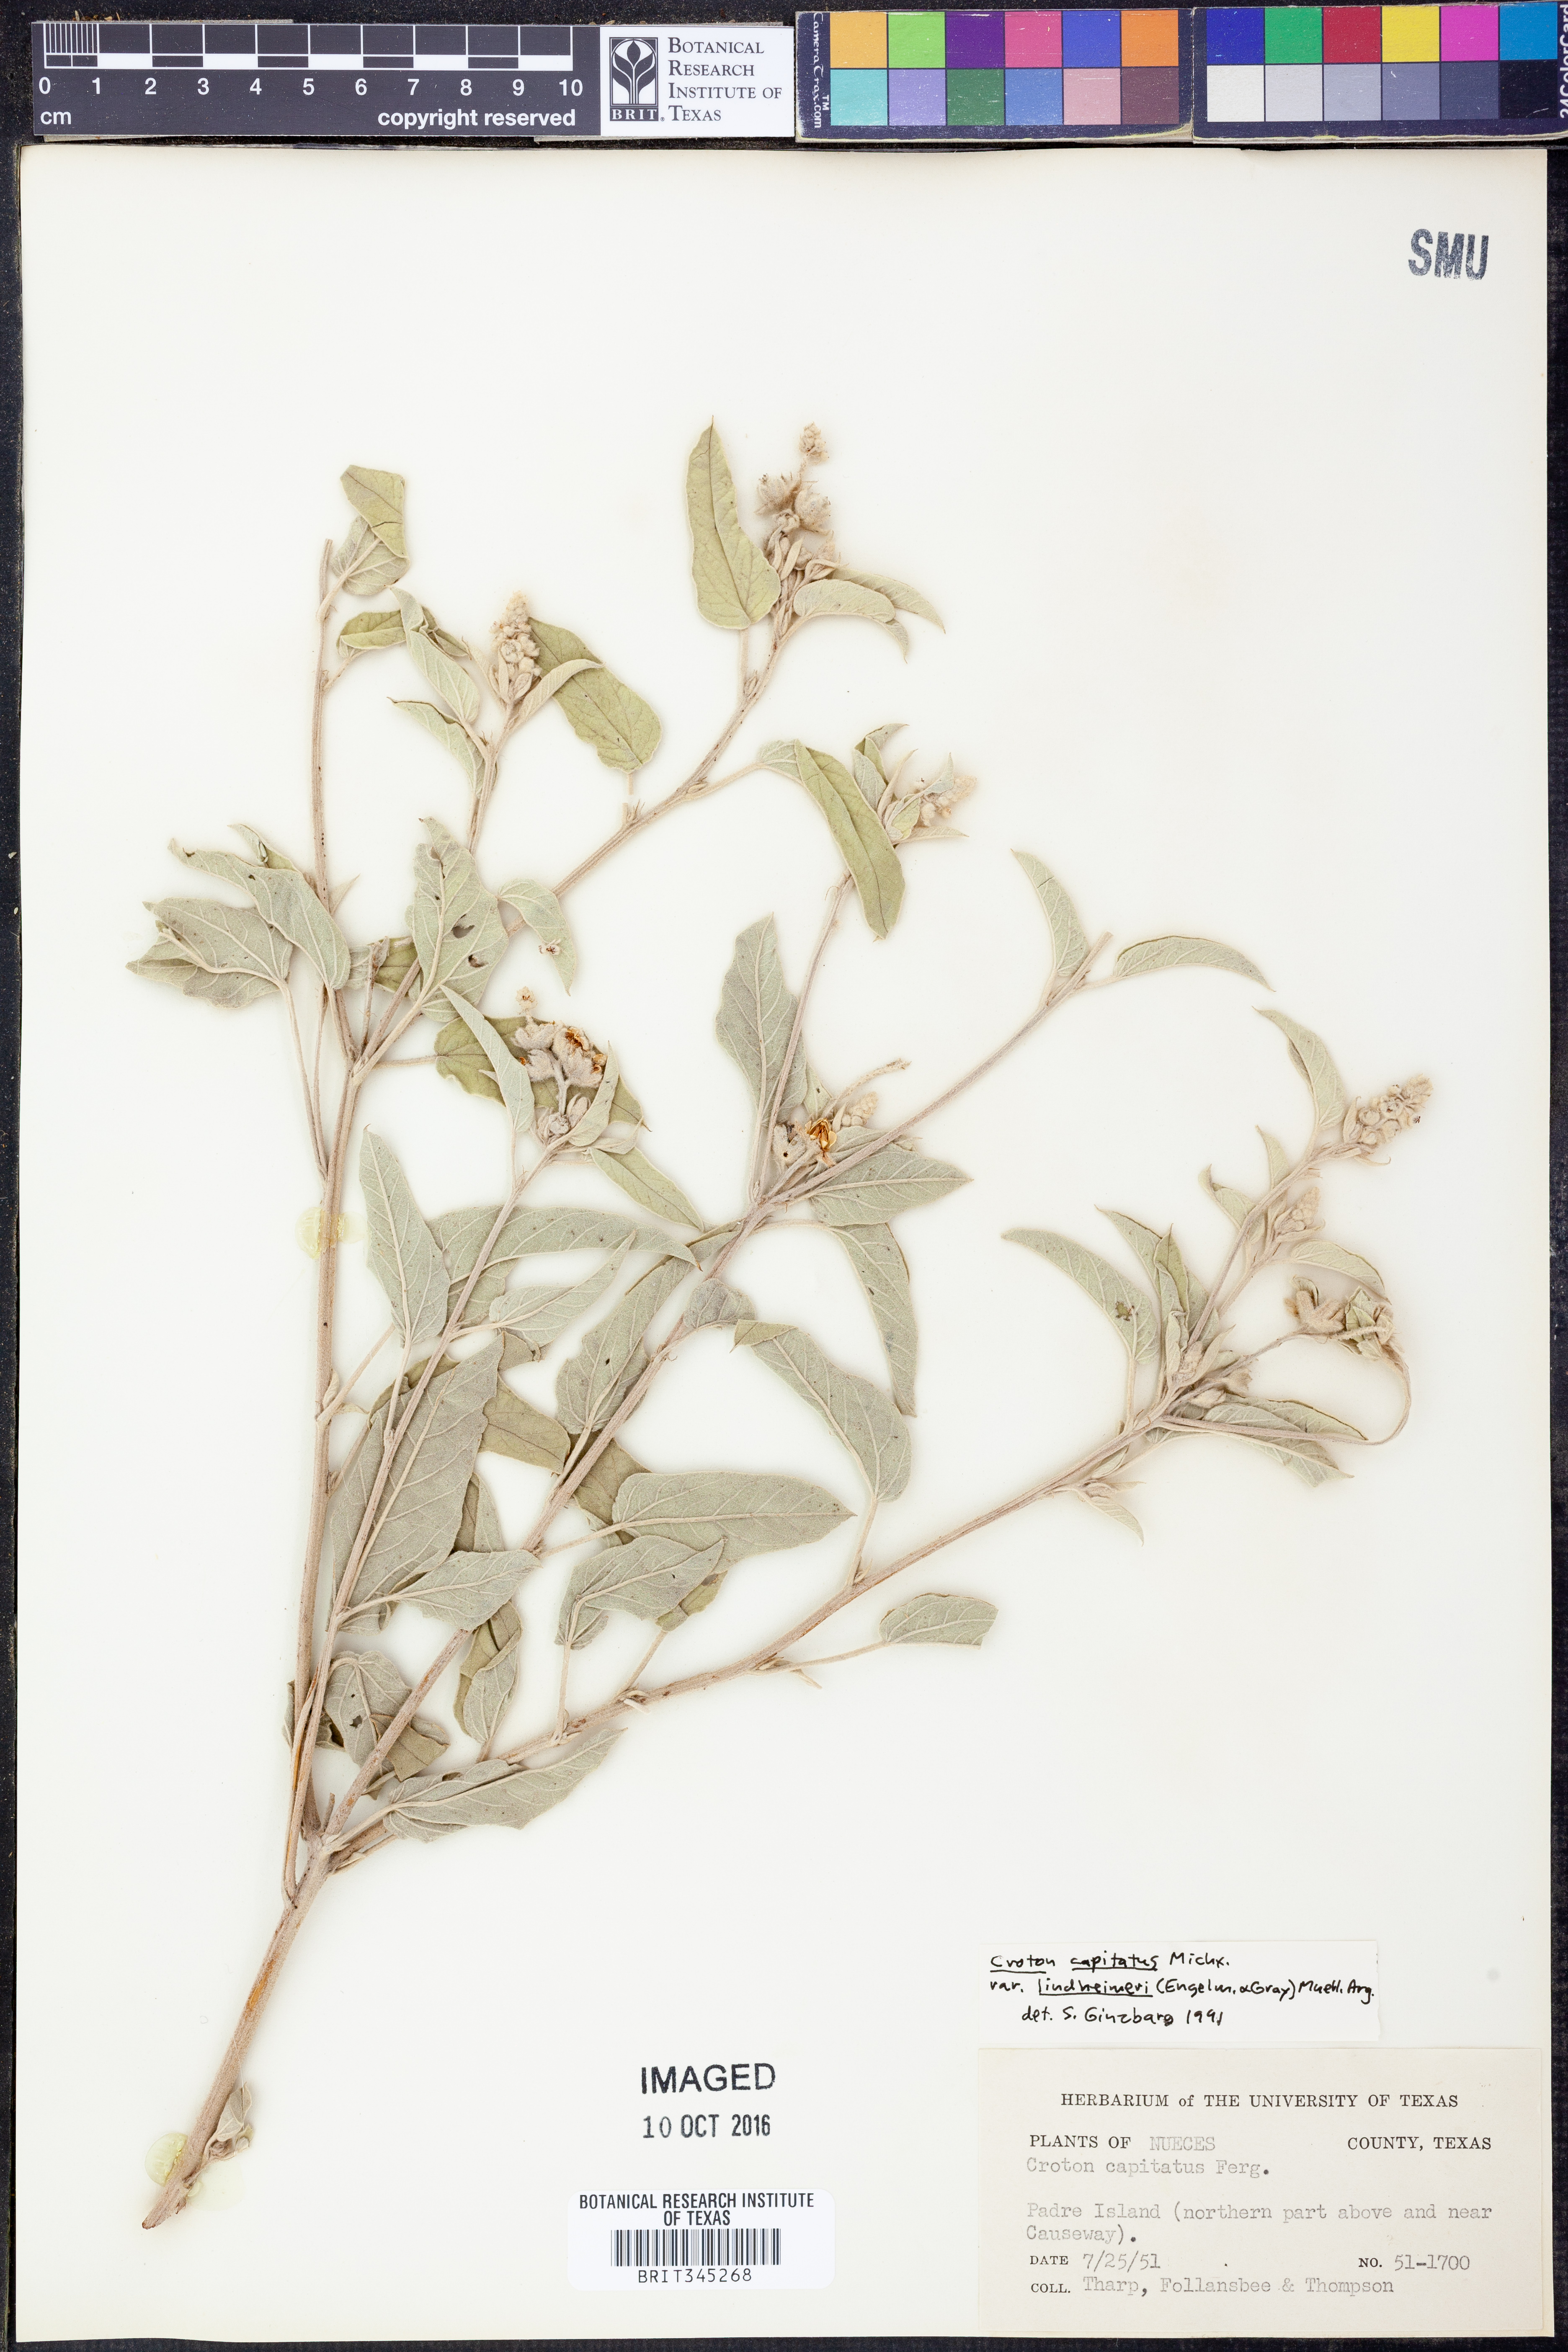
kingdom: Plantae
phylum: Tracheophyta
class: Magnoliopsida
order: Malpighiales
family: Euphorbiaceae
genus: Croton
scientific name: Croton lindheimeri
